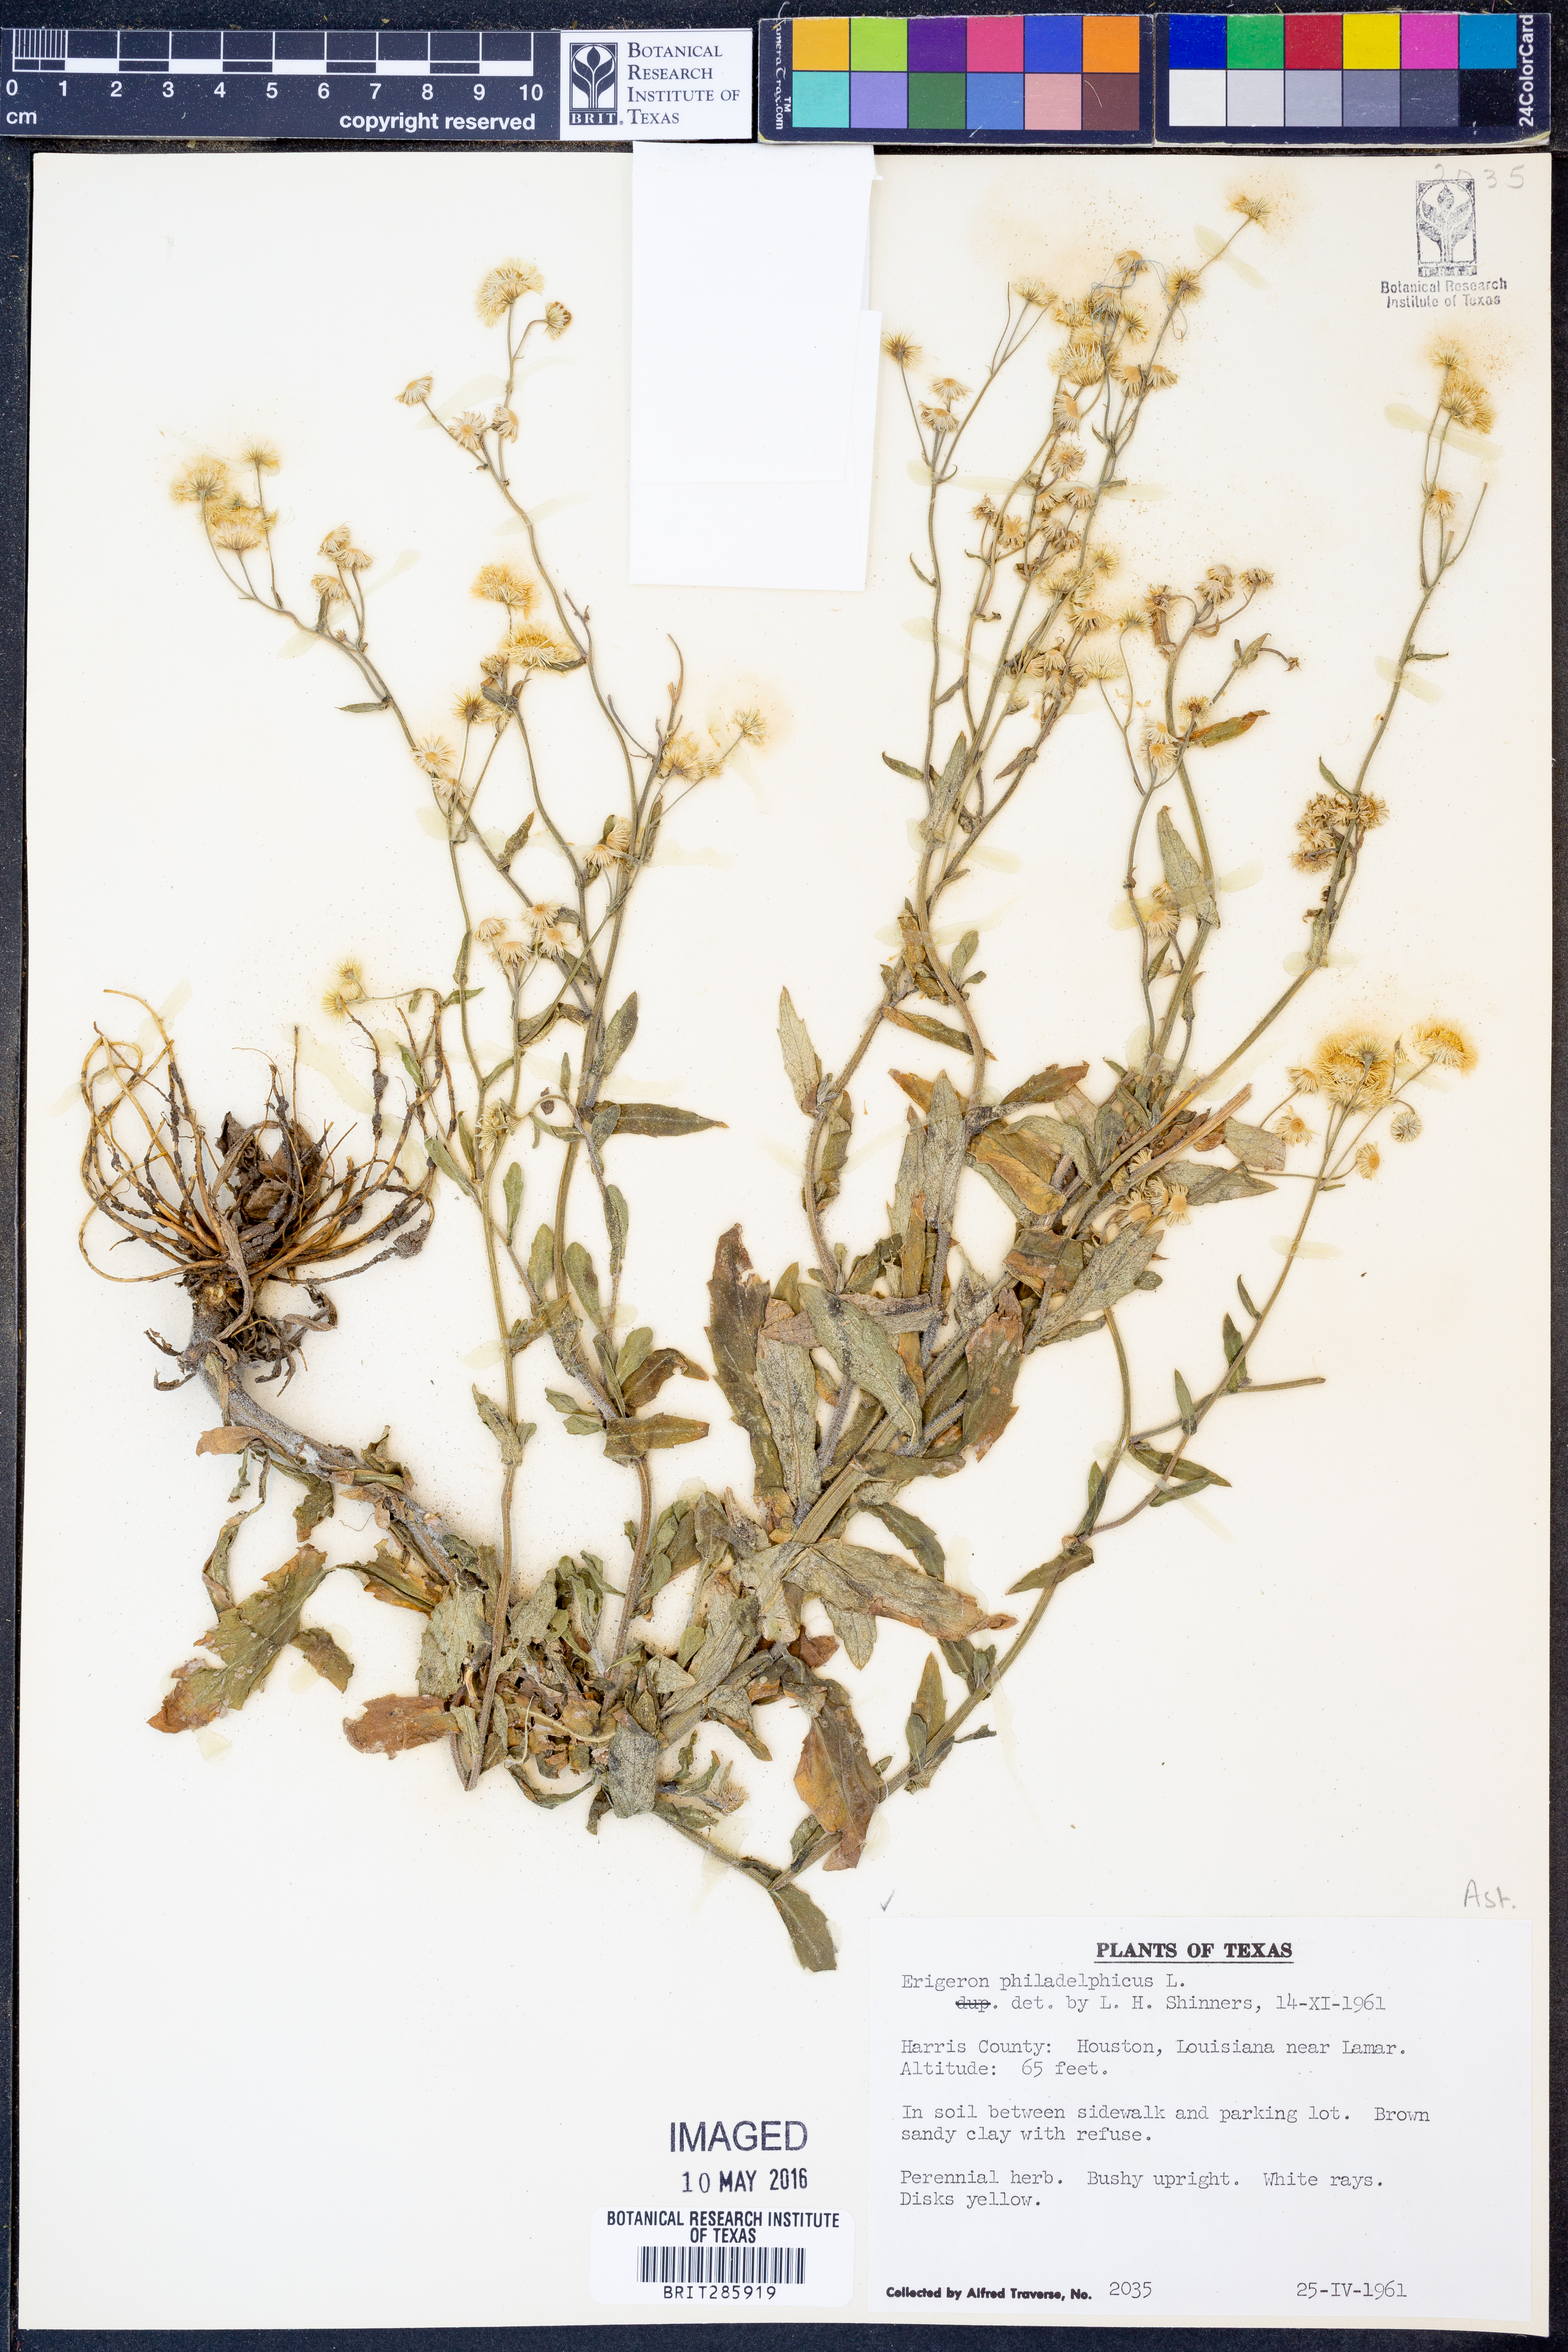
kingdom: Plantae
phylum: Tracheophyta
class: Magnoliopsida
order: Asterales
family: Asteraceae
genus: Erigeron
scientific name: Erigeron philadelphicus
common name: Robin's-plantain
